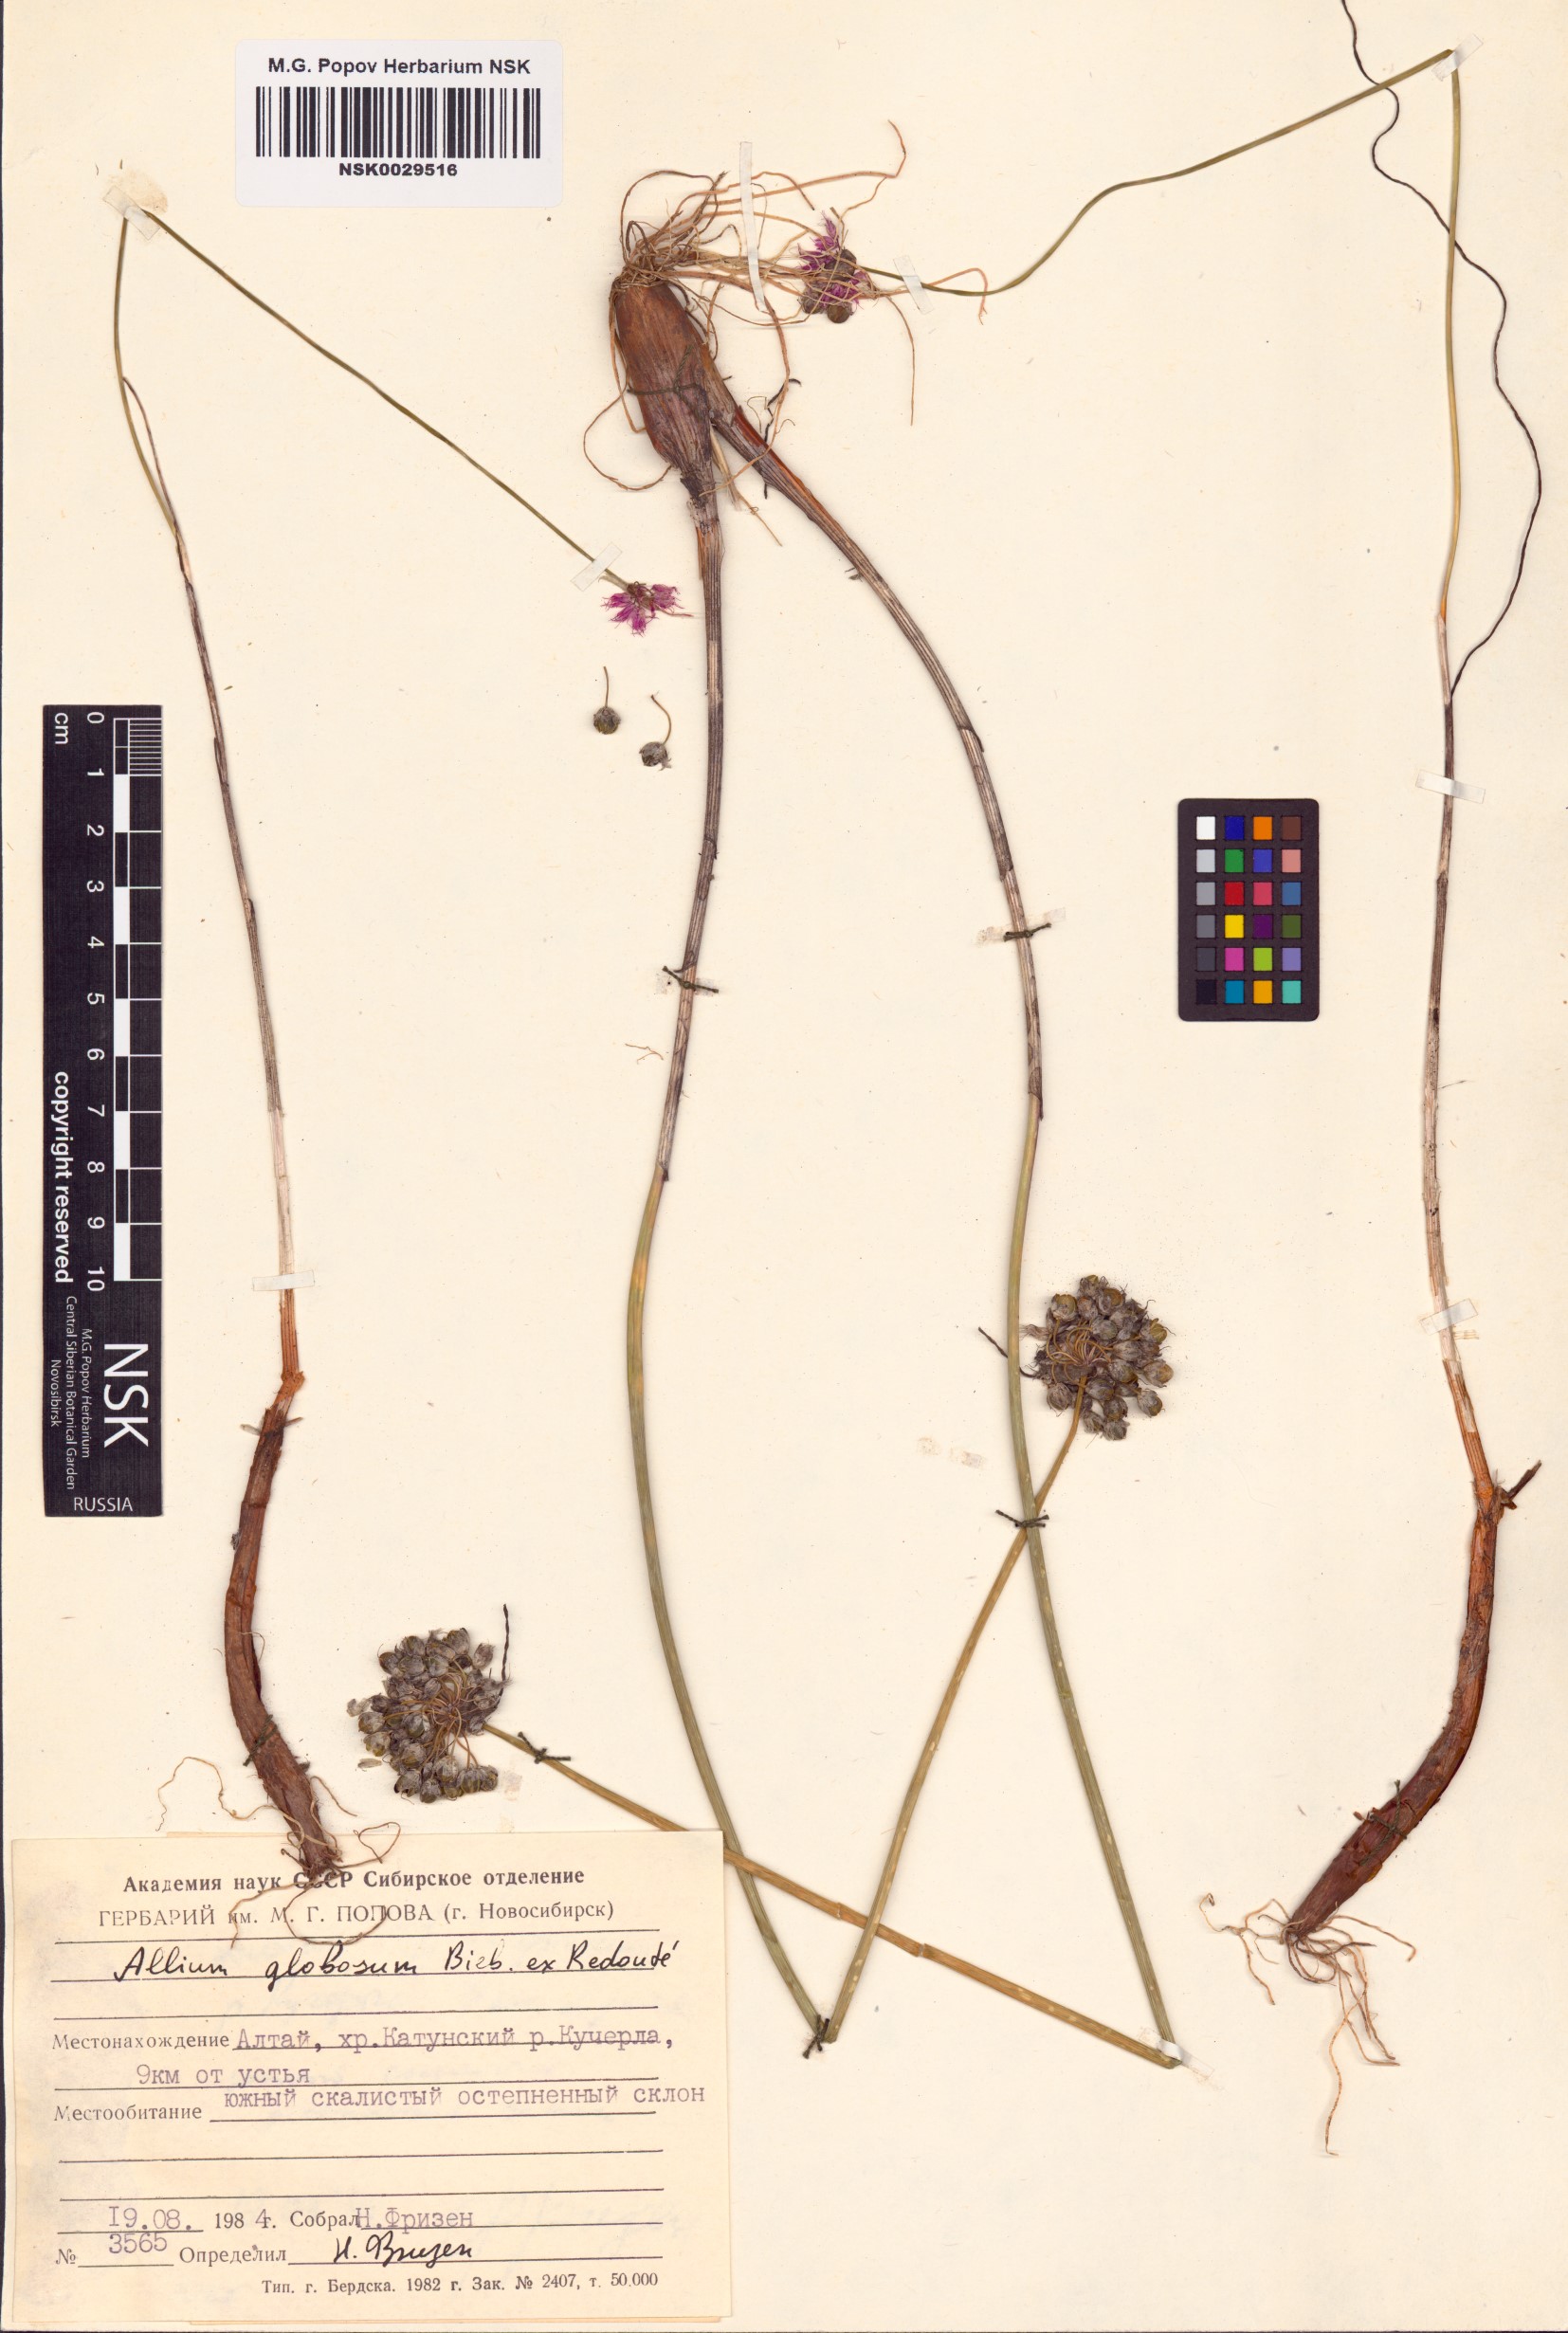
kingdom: Plantae
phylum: Tracheophyta
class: Liliopsida
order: Asparagales
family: Amaryllidaceae
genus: Allium
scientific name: Allium saxatile
